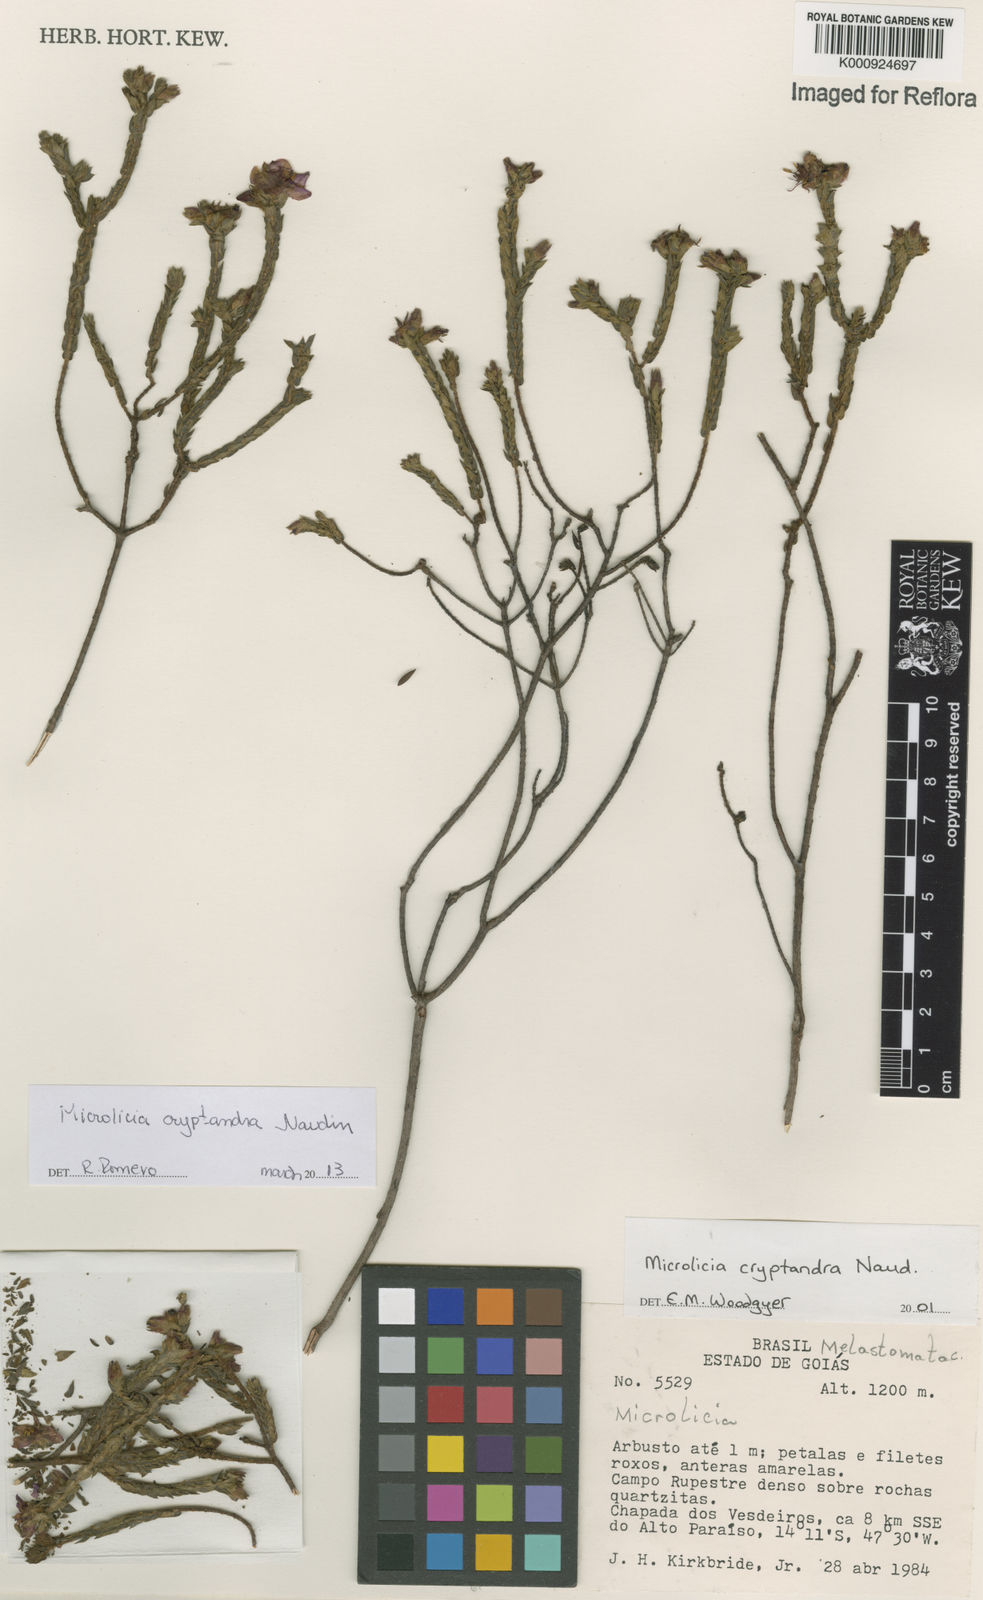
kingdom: Plantae
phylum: Tracheophyta
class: Magnoliopsida
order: Myrtales
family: Melastomataceae
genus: Microlicia
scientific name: Microlicia cryptandra
